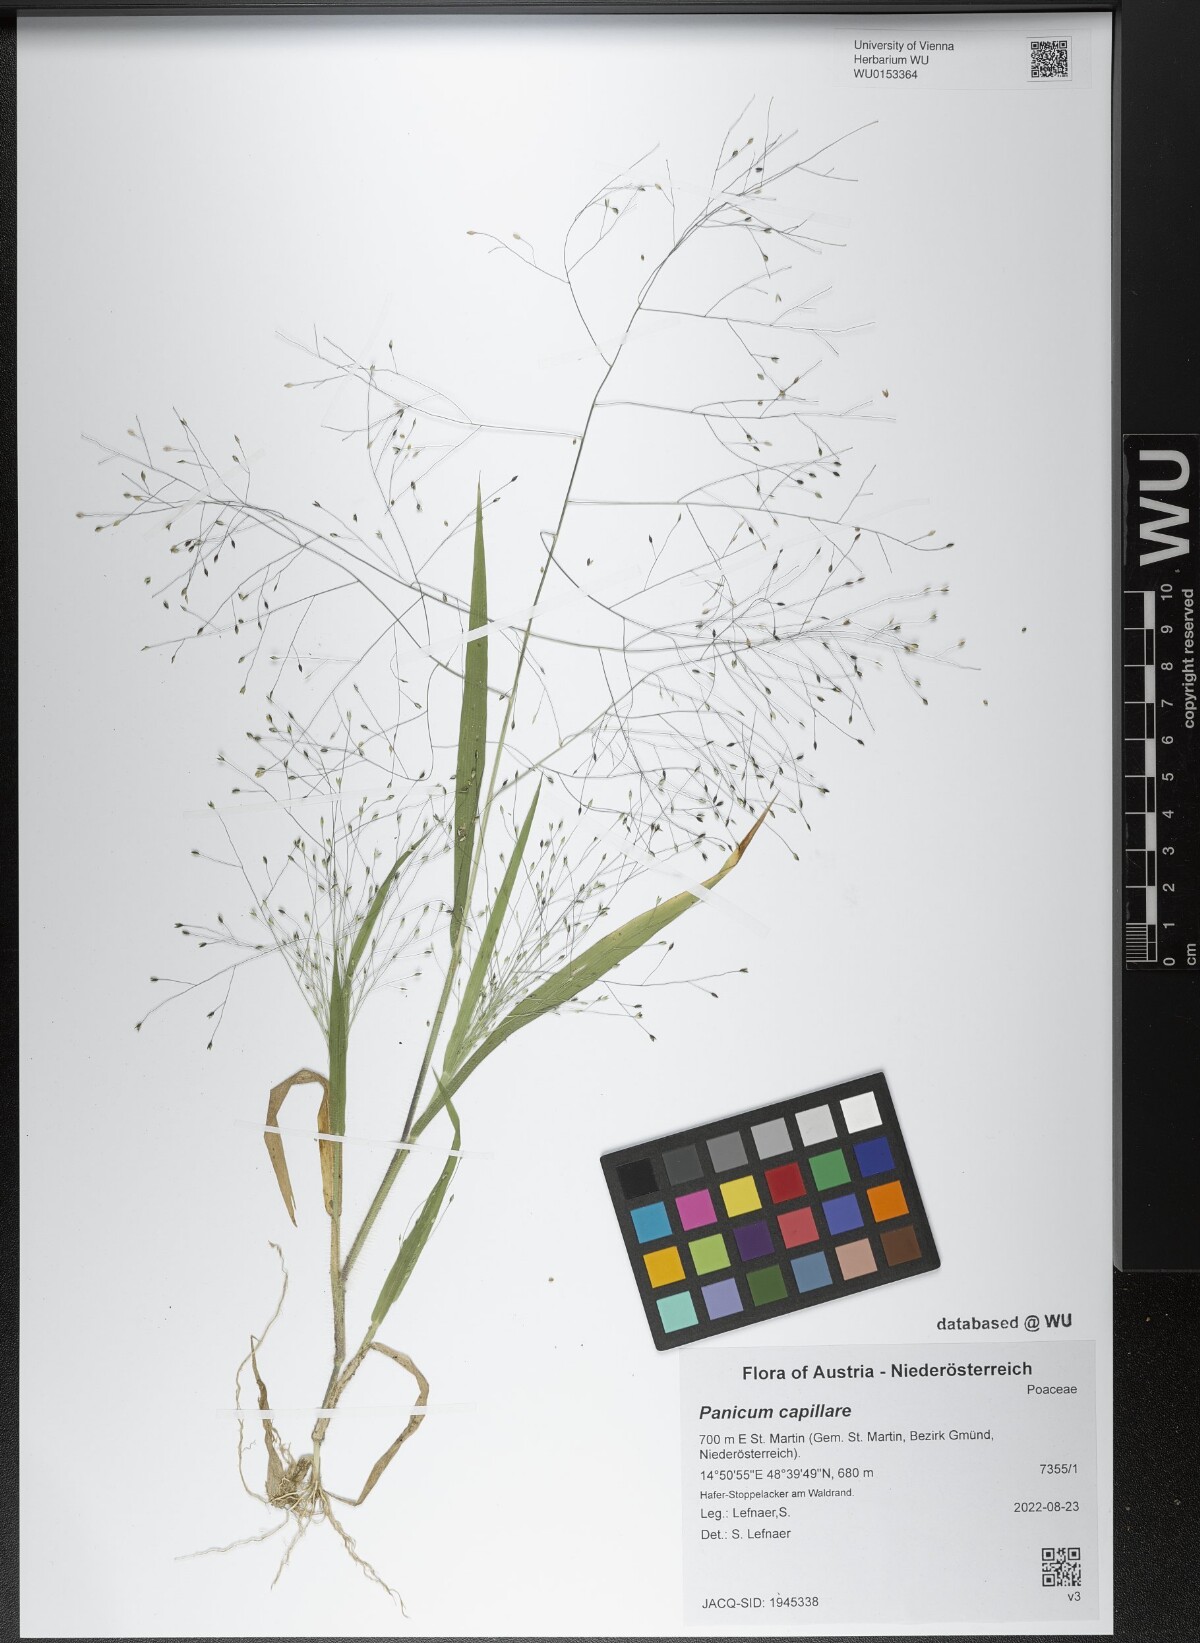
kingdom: Plantae
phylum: Tracheophyta
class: Liliopsida
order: Poales
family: Poaceae
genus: Panicum
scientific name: Panicum capillare
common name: Witch-grass
